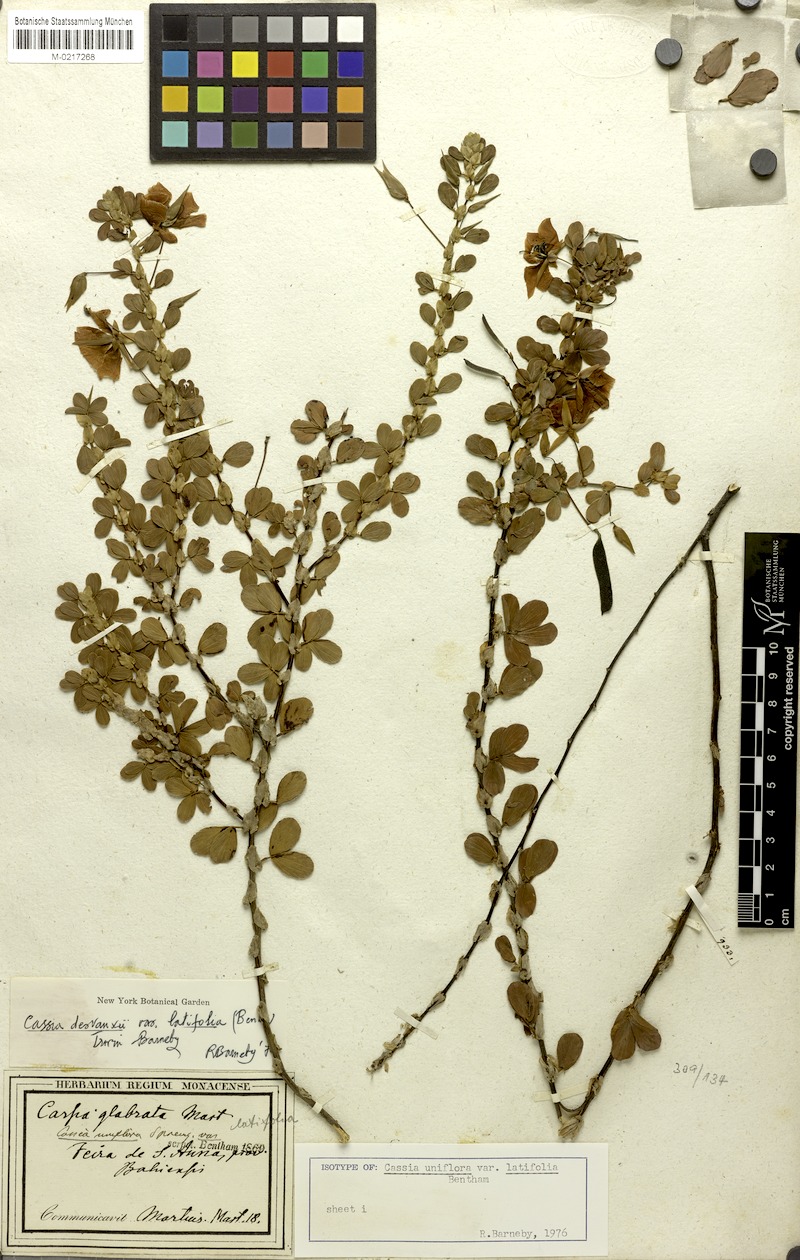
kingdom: Plantae
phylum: Tracheophyta
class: Magnoliopsida
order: Fabales
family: Fabaceae
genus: Chamaecrista
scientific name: Chamaecrista desvauxii
